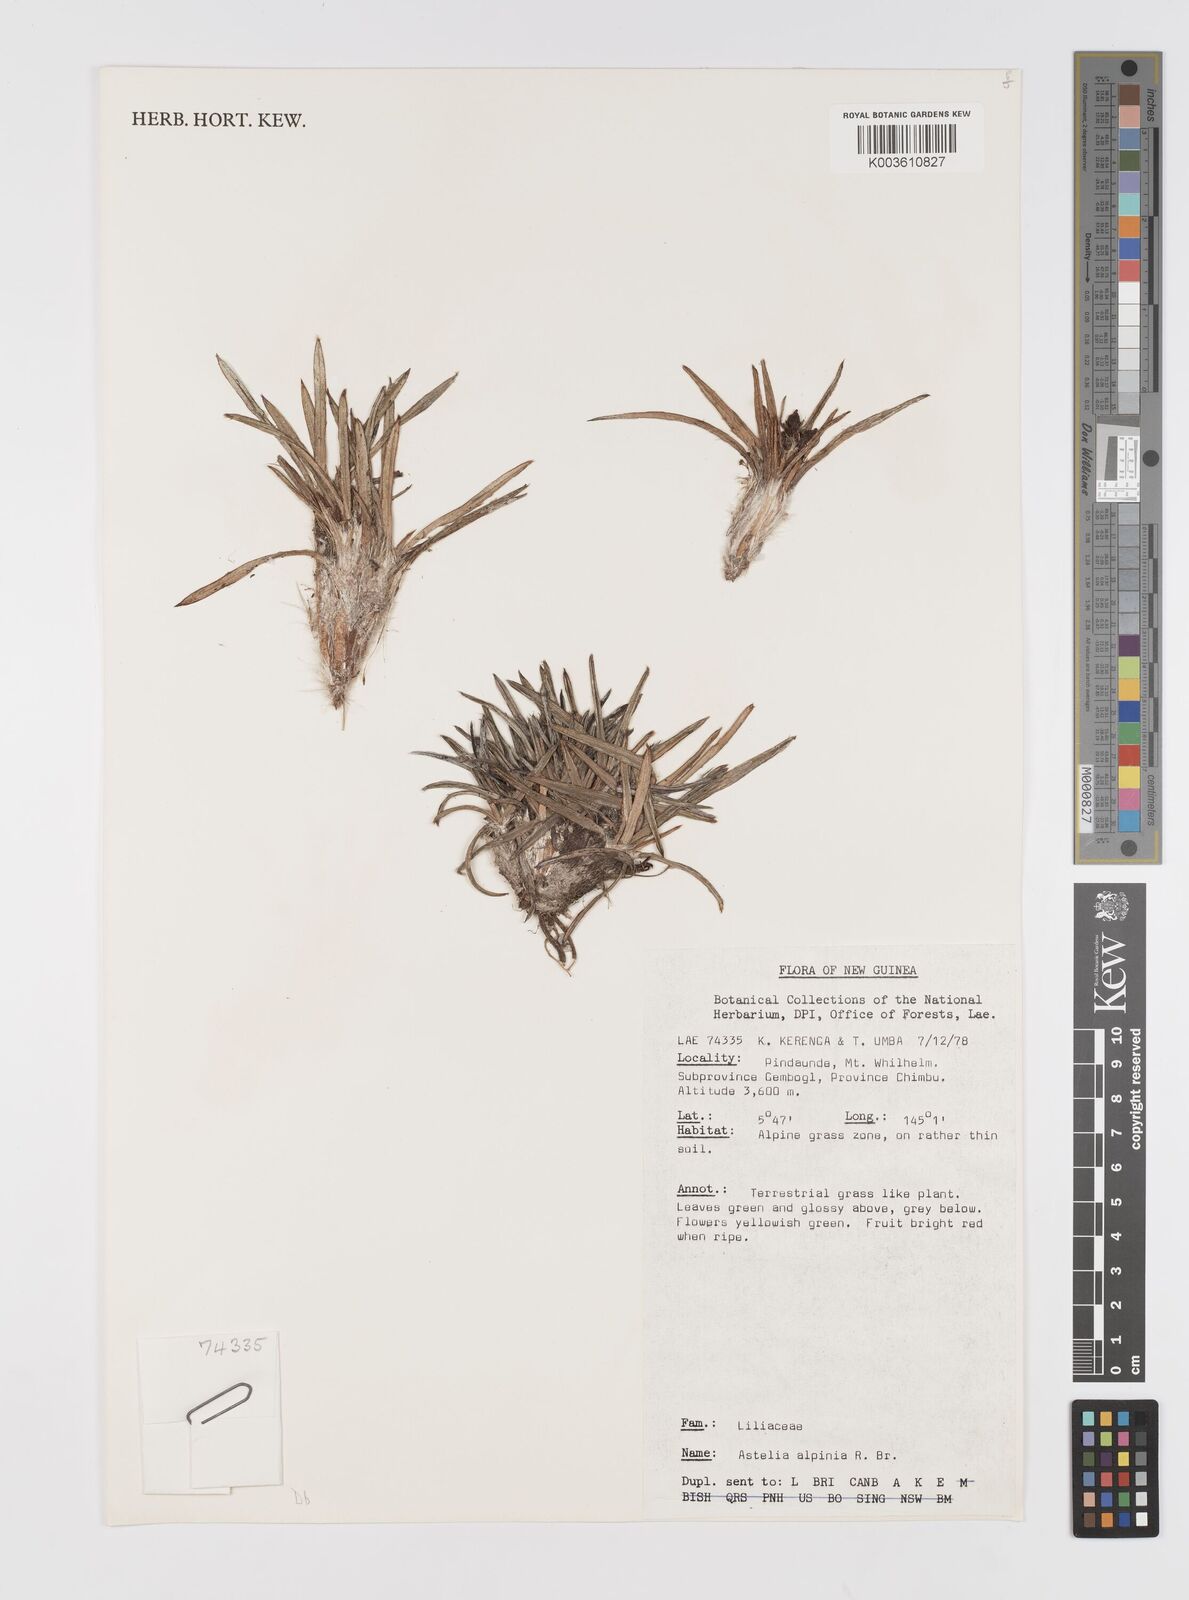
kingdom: Plantae
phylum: Tracheophyta
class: Liliopsida
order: Asparagales
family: Asteliaceae
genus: Astelia
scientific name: Astelia papuana
